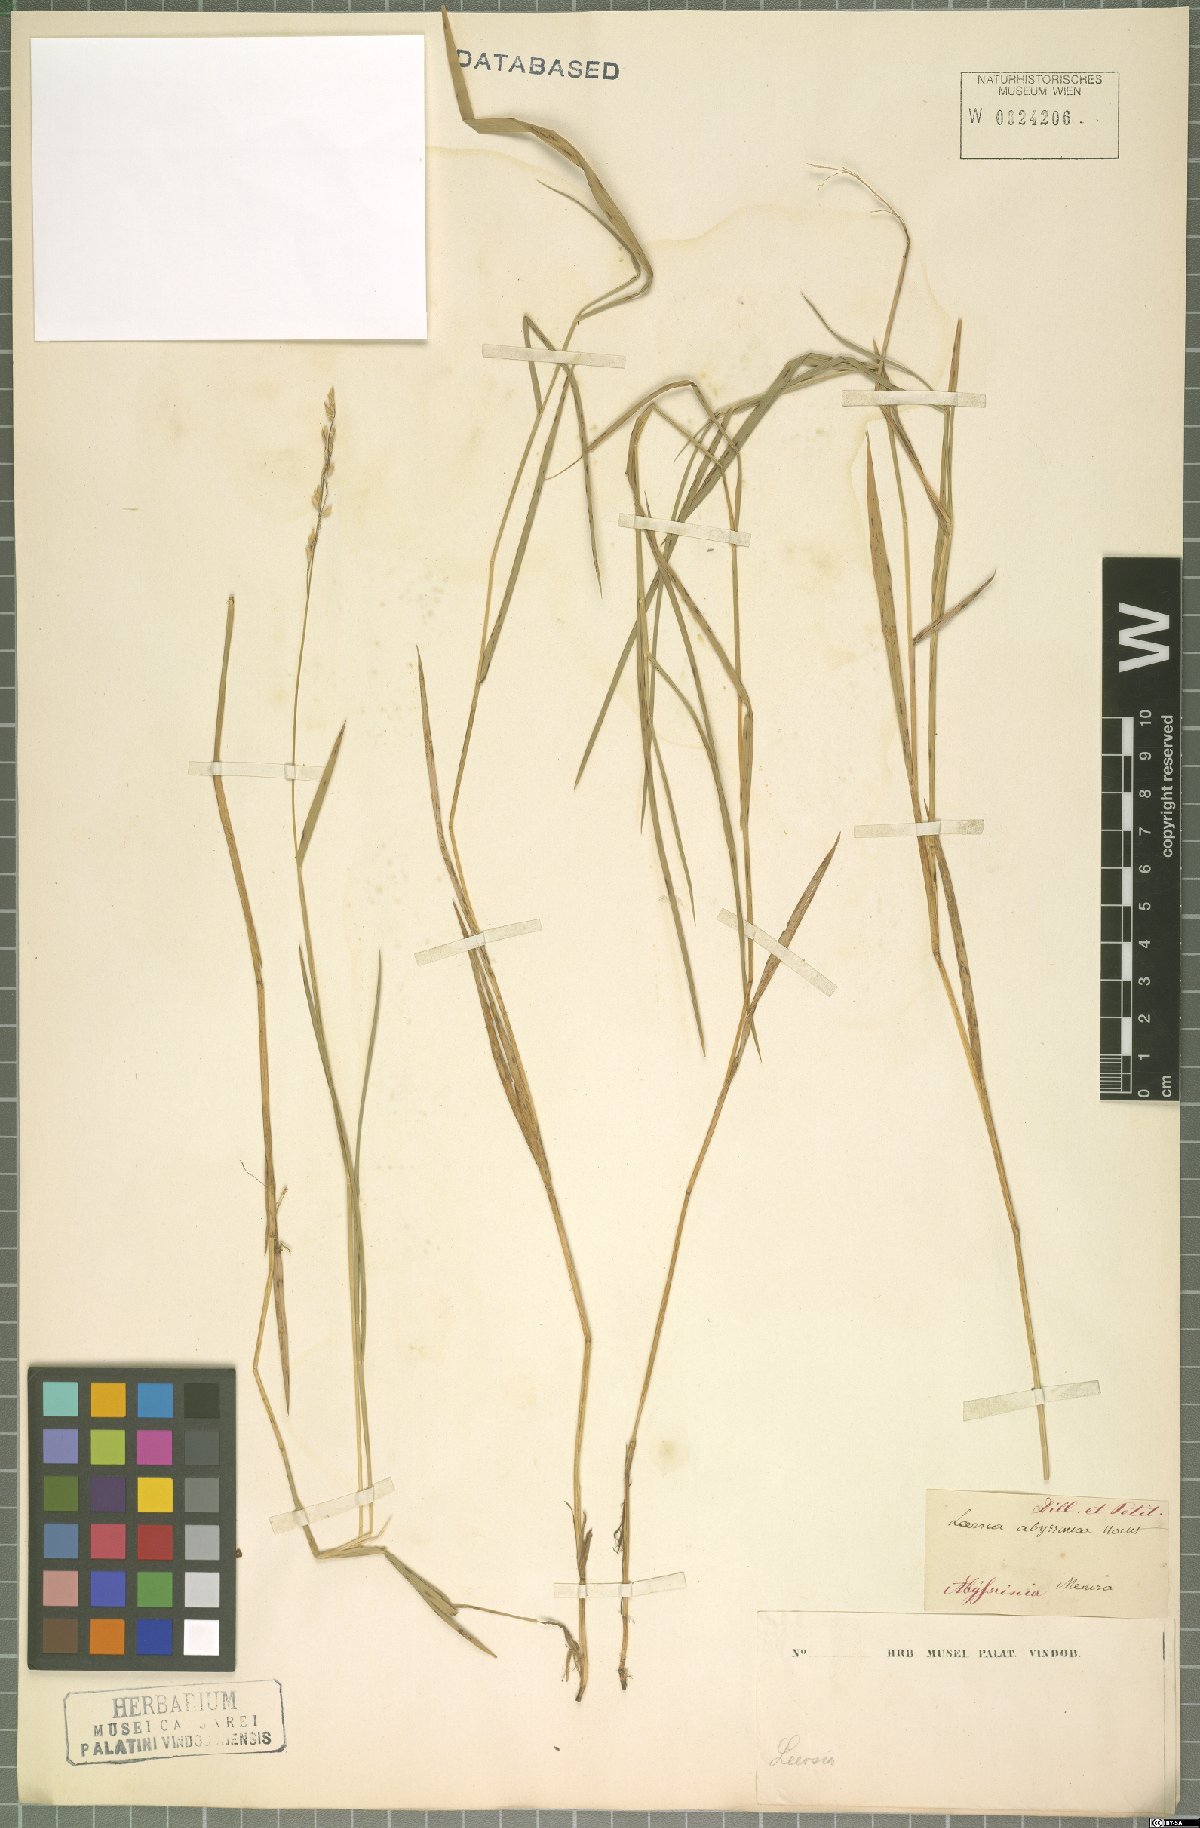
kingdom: Plantae
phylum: Tracheophyta
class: Liliopsida
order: Poales
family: Poaceae
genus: Leersia
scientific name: Leersia hexandra
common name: Southern cut grass
